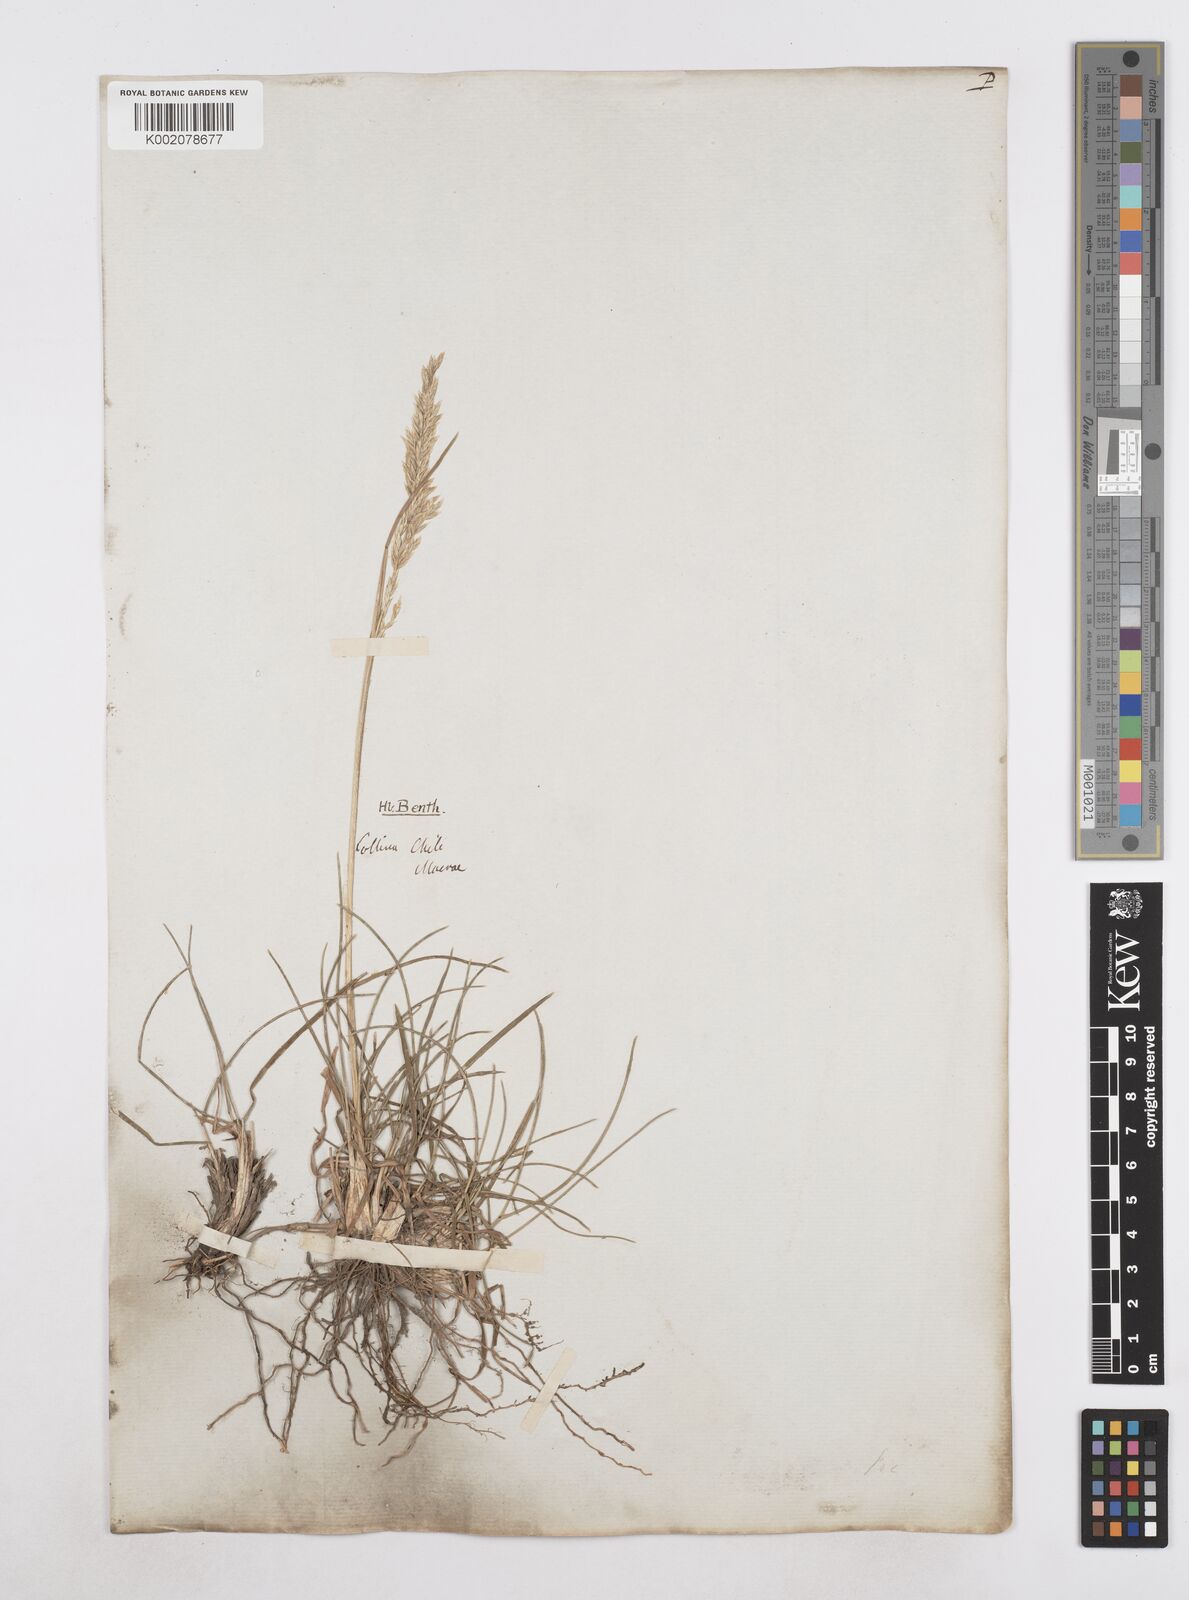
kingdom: Plantae
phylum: Tracheophyta
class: Liliopsida
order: Poales
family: Poaceae
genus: Poa
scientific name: Poa spiciformis
